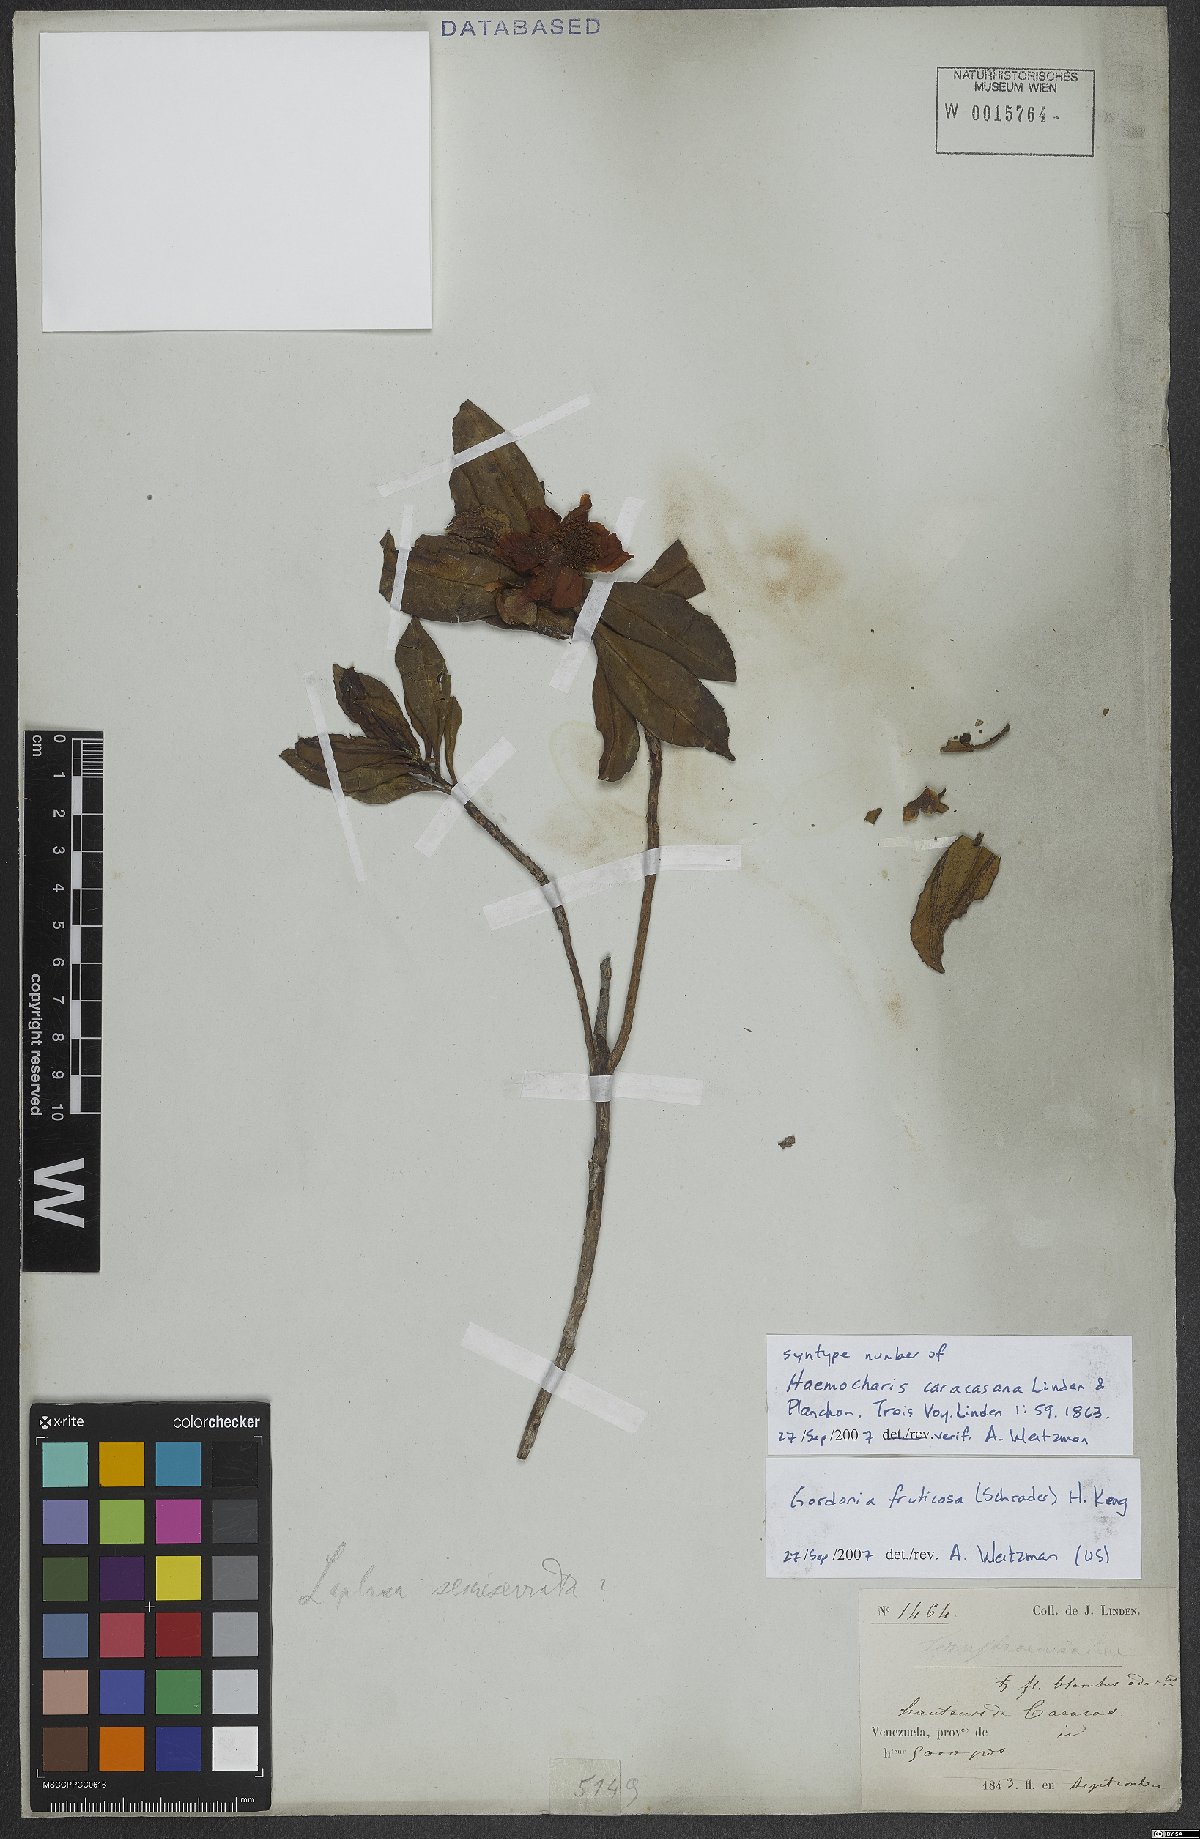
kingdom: Plantae
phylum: Tracheophyta
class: Magnoliopsida
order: Ericales
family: Theaceae
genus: Gordonia
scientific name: Gordonia fruticosa
